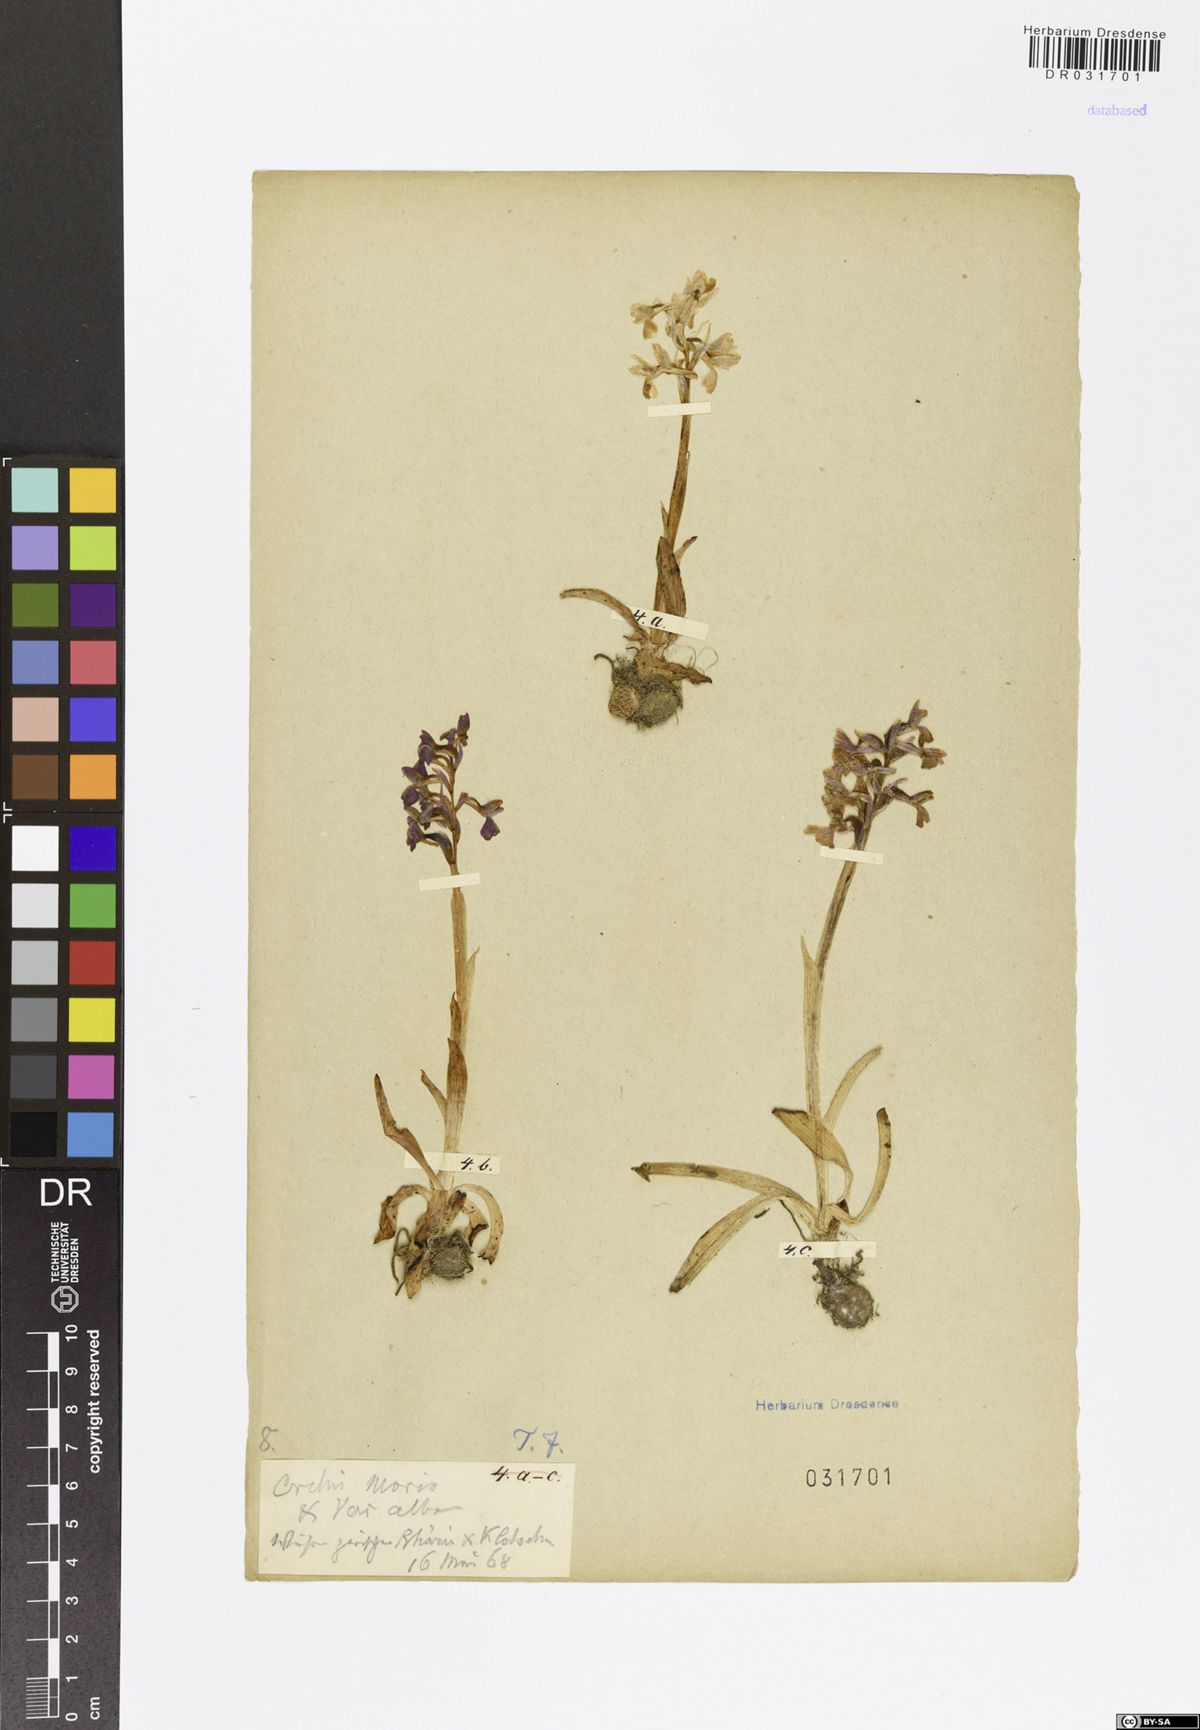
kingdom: Plantae
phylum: Tracheophyta
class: Liliopsida
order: Asparagales
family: Orchidaceae
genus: Anacamptis
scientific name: Anacamptis morio
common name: Green-winged orchid
